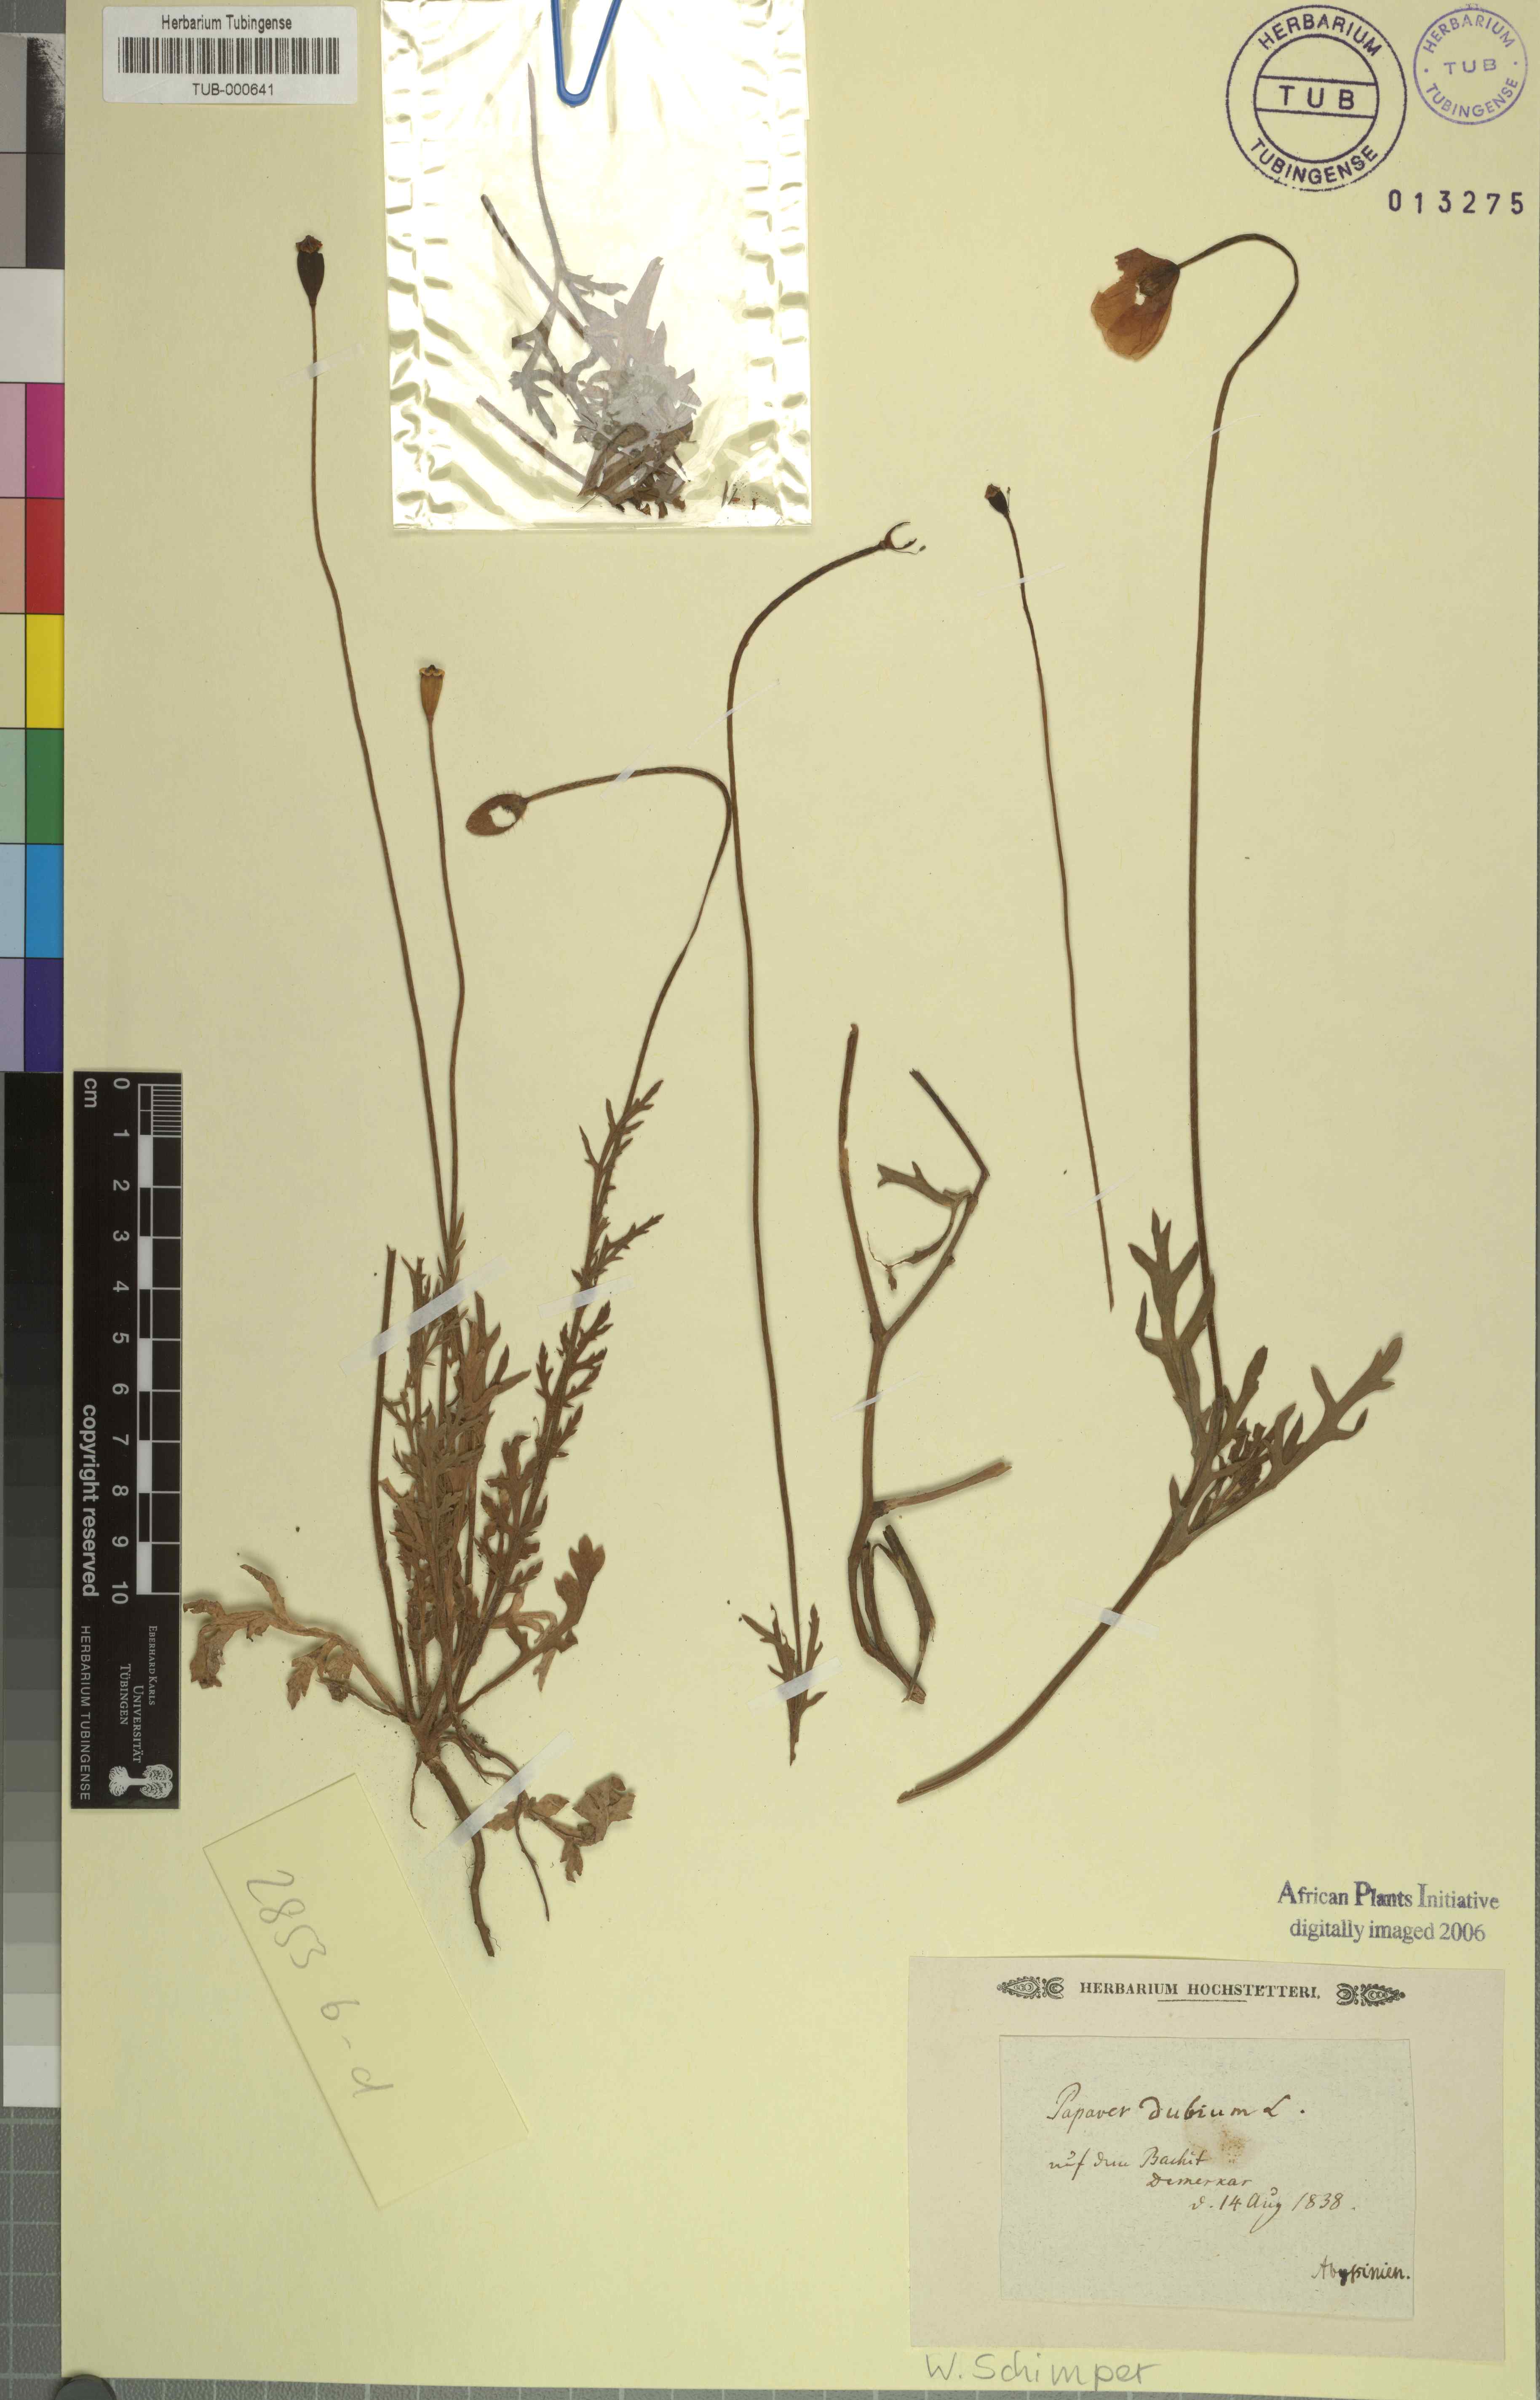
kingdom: Plantae
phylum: Tracheophyta
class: Magnoliopsida
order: Ranunculales
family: Papaveraceae
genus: Papaver
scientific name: Papaver dubium
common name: Long-headed poppy
